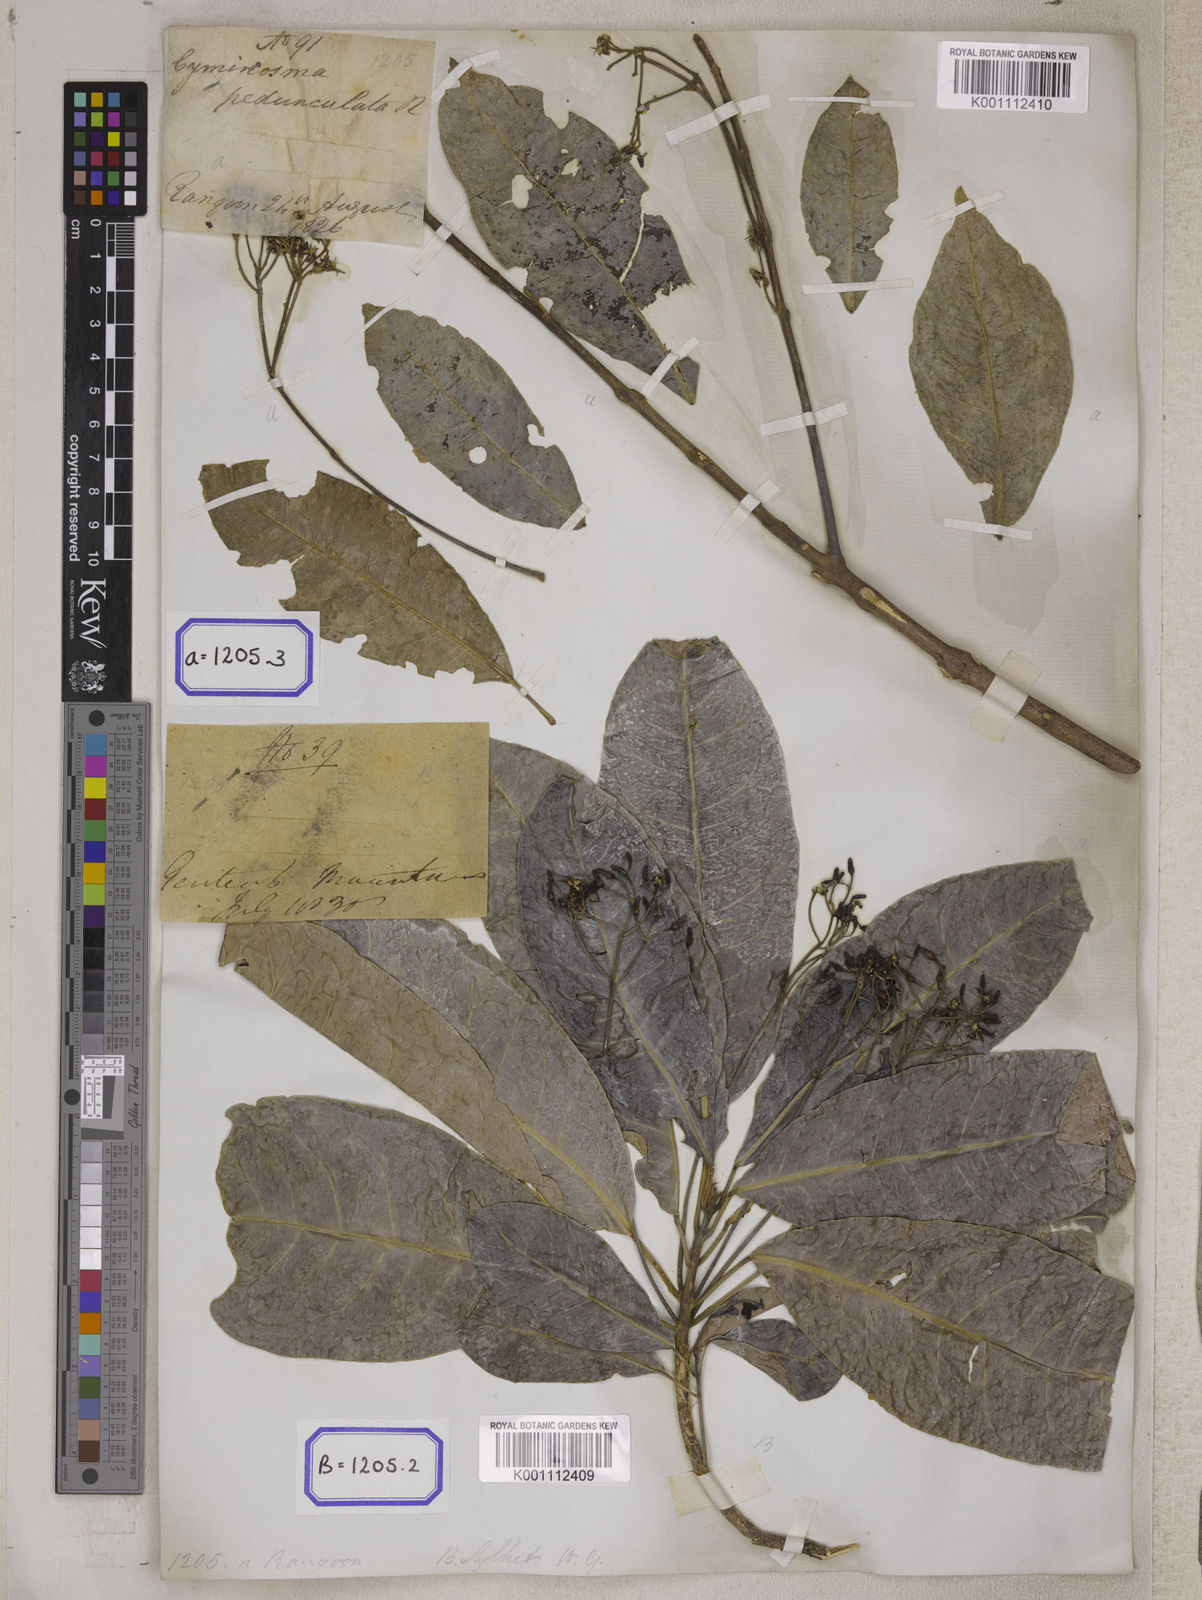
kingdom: Plantae
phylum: Tracheophyta
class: Magnoliopsida
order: Sapindales
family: Rutaceae
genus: Acronychia
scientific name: Acronychia
